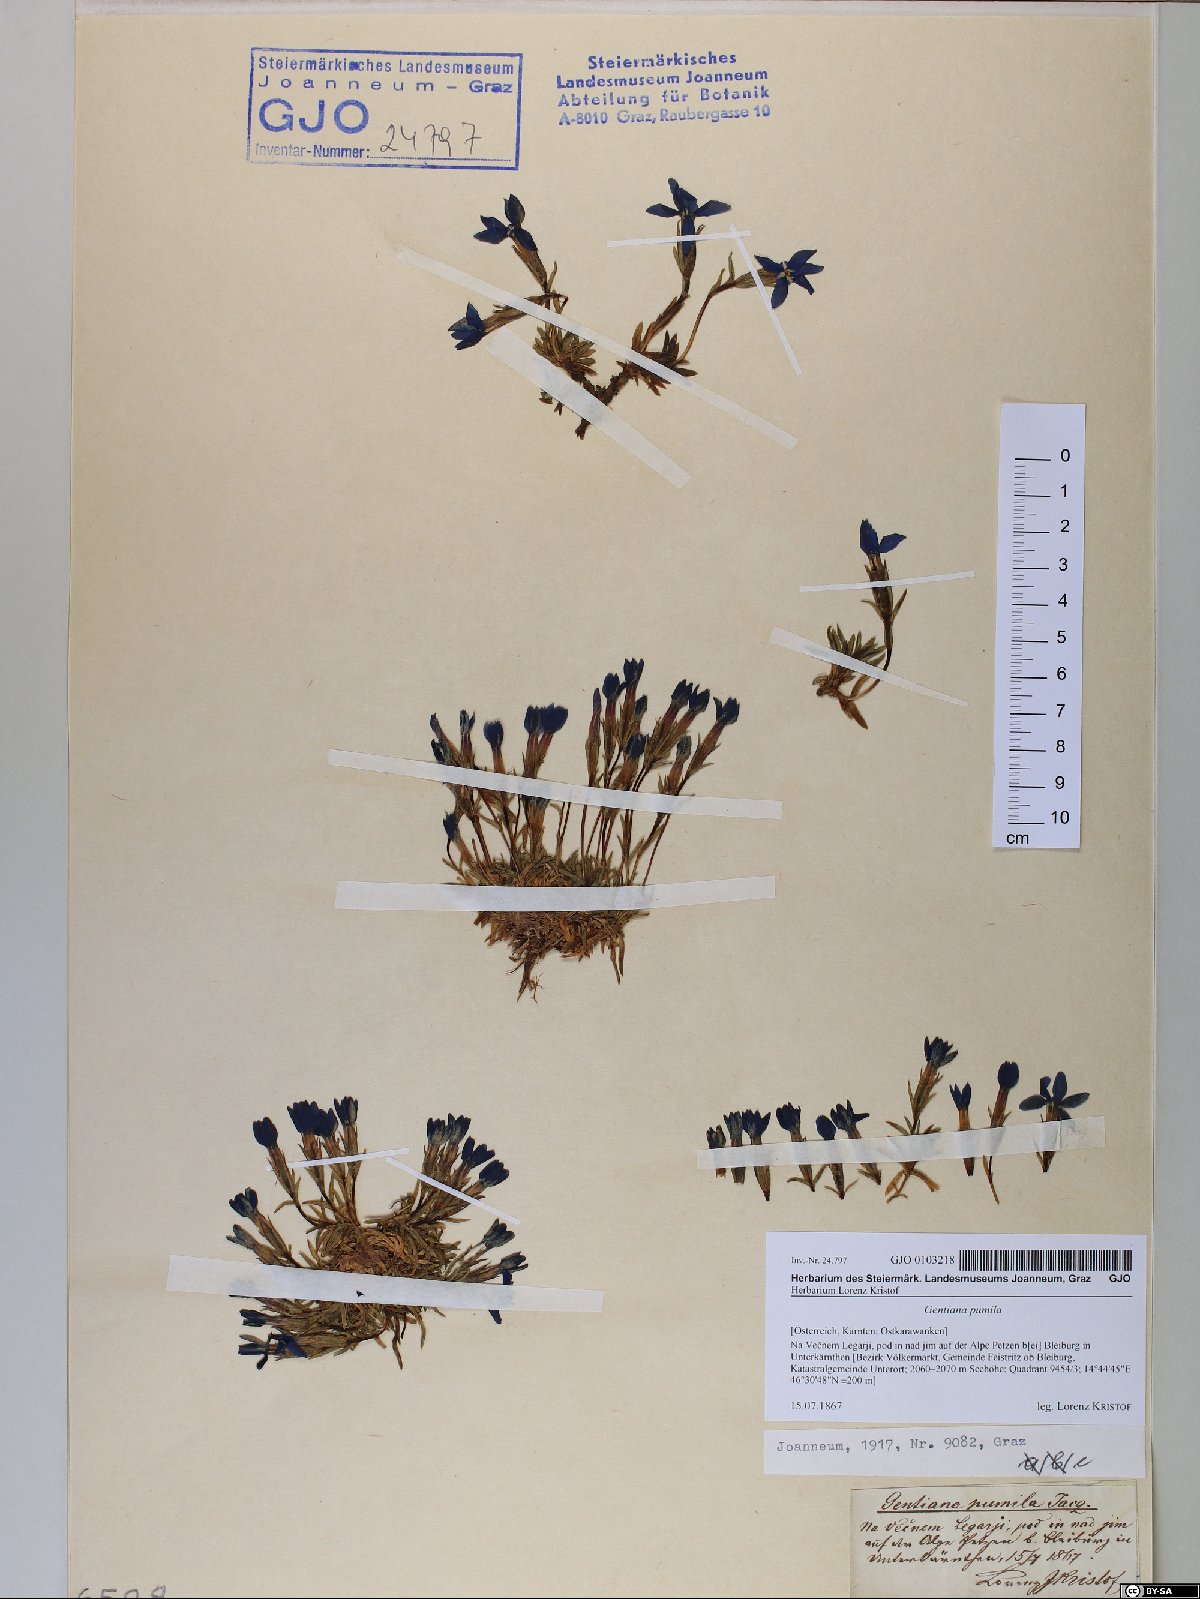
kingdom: Plantae
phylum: Tracheophyta
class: Magnoliopsida
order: Gentianales
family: Gentianaceae
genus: Gentiana
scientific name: Gentiana pumila
